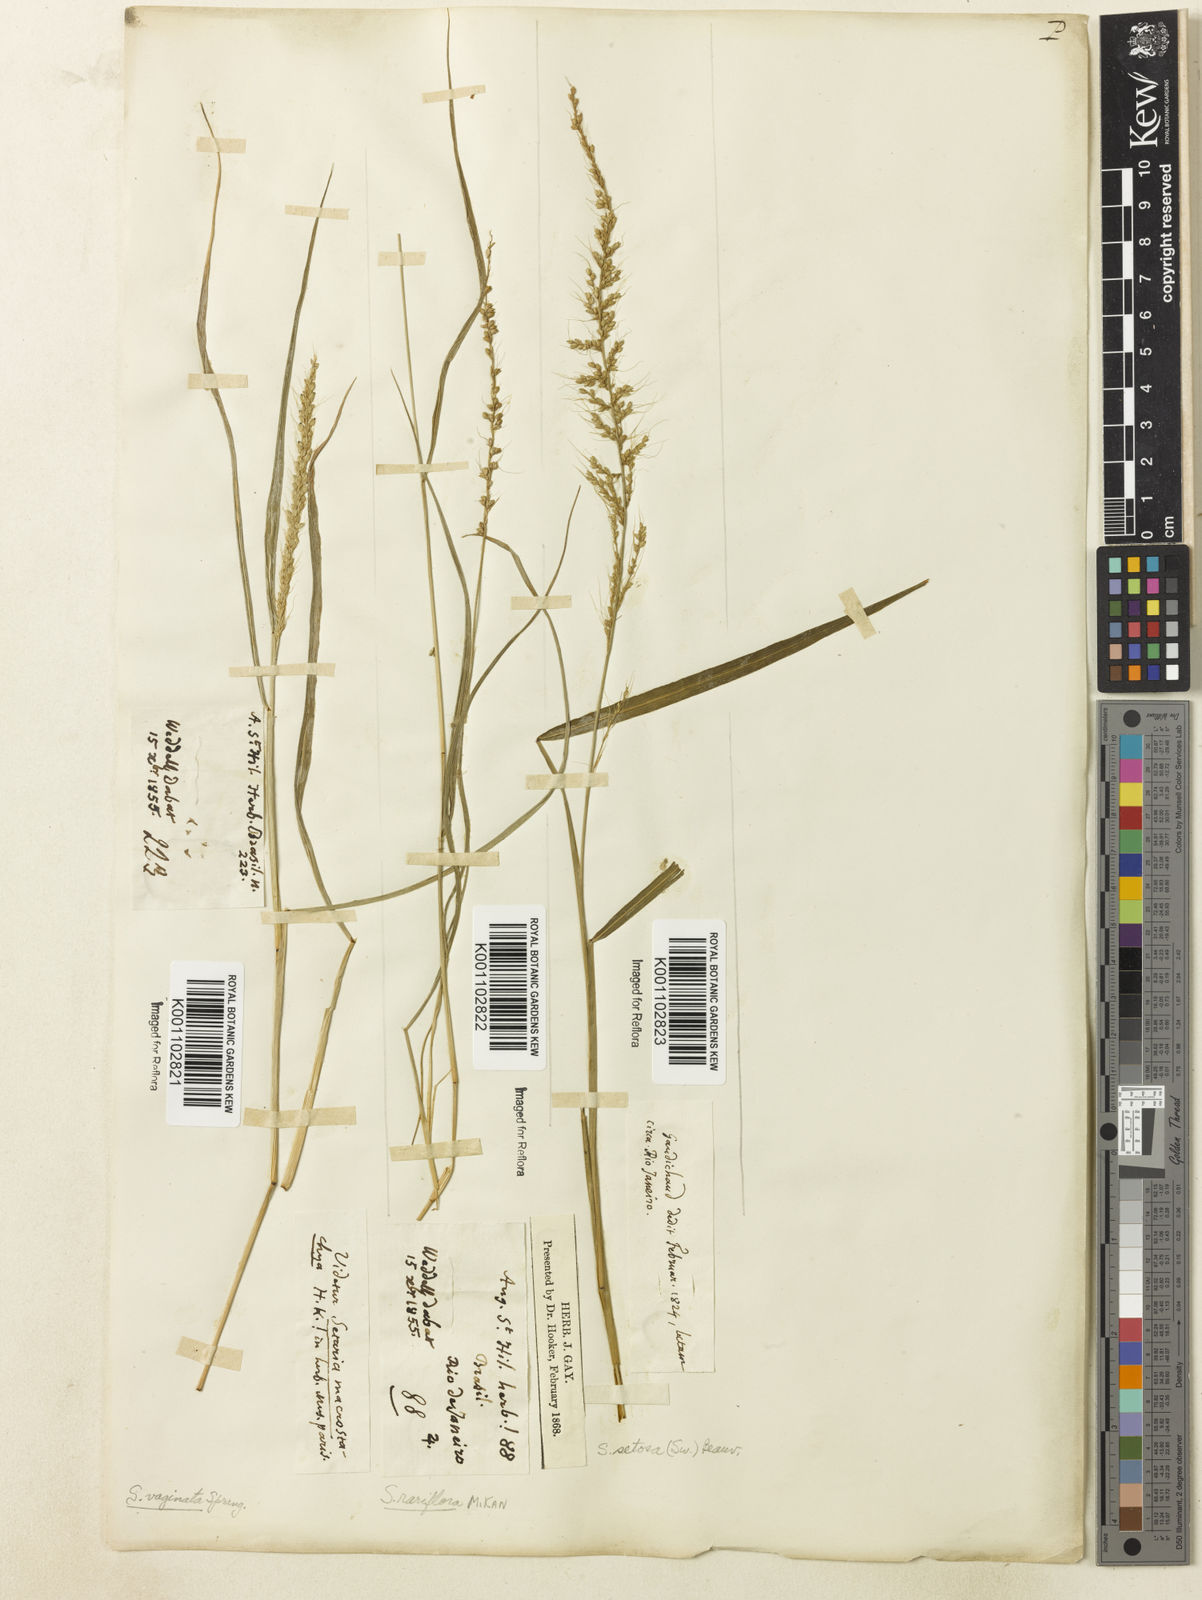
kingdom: Plantae
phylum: Tracheophyta
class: Liliopsida
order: Poales
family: Poaceae
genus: Setaria
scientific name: Setaria setosa
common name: West indies bristle grass
